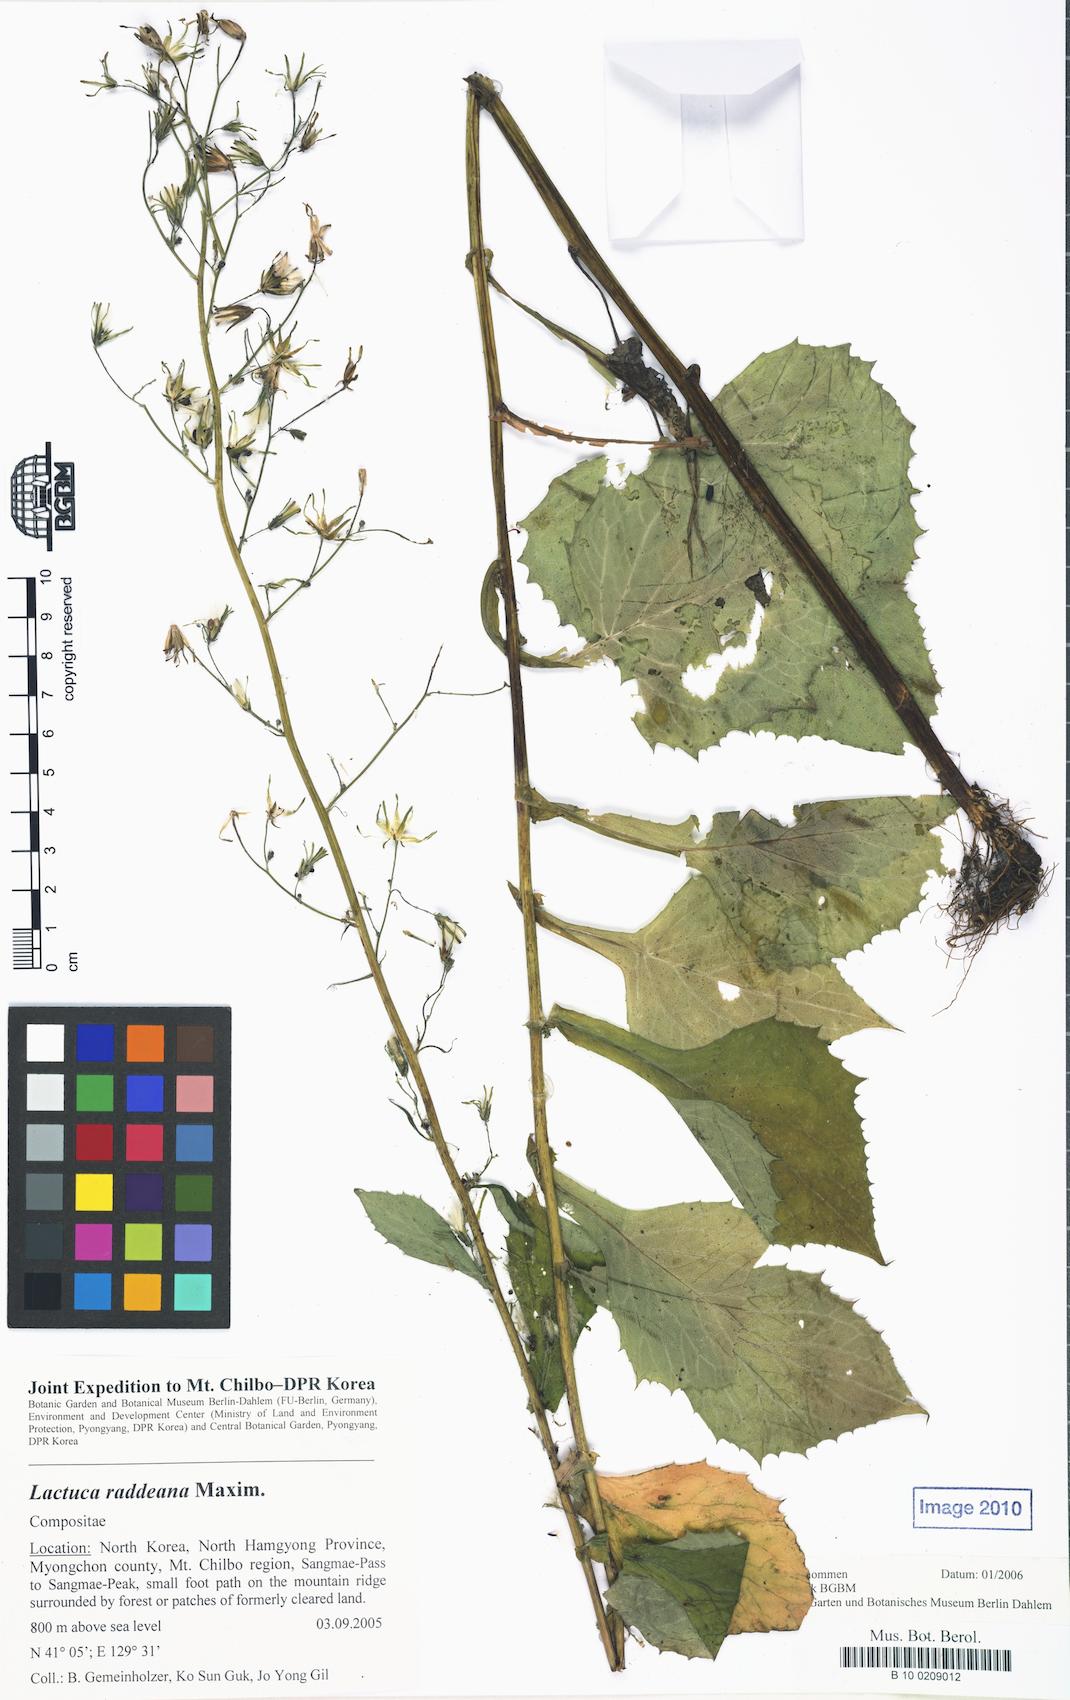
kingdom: Plantae
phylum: Tracheophyta
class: Magnoliopsida
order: Asterales
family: Asteraceae
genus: Lactuca
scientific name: Lactuca raddeana
